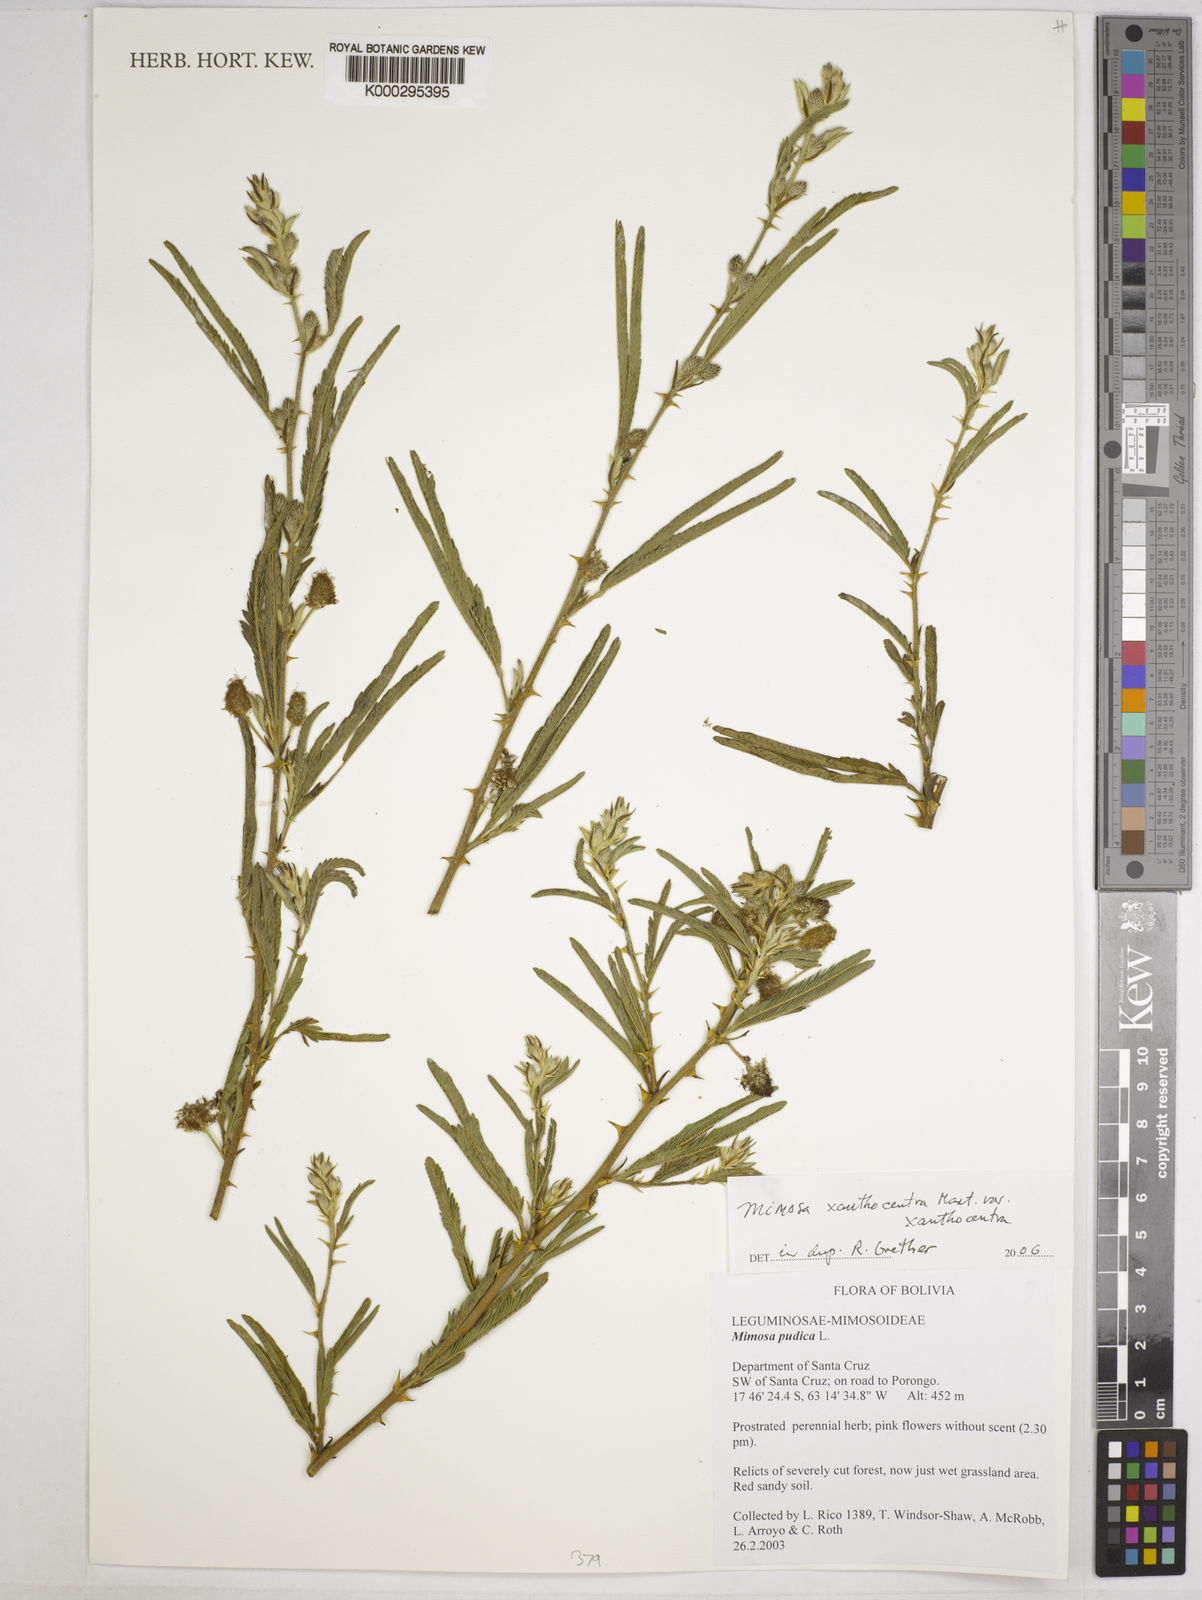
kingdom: Plantae
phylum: Tracheophyta
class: Magnoliopsida
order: Fabales
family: Fabaceae
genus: Mimosa
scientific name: Mimosa xanthocentra
